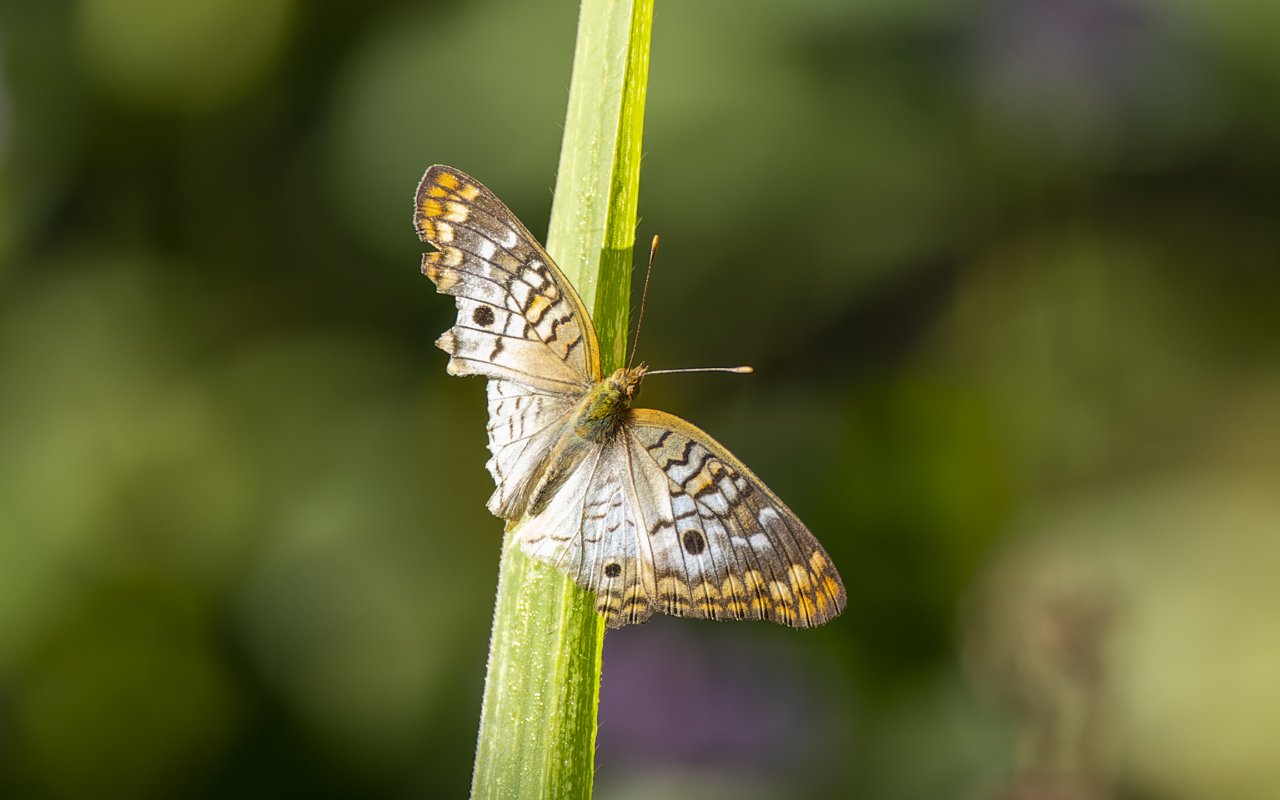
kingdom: Animalia
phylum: Arthropoda
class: Insecta
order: Lepidoptera
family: Nymphalidae
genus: Anartia
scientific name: Anartia jatrophae
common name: White Peacock
